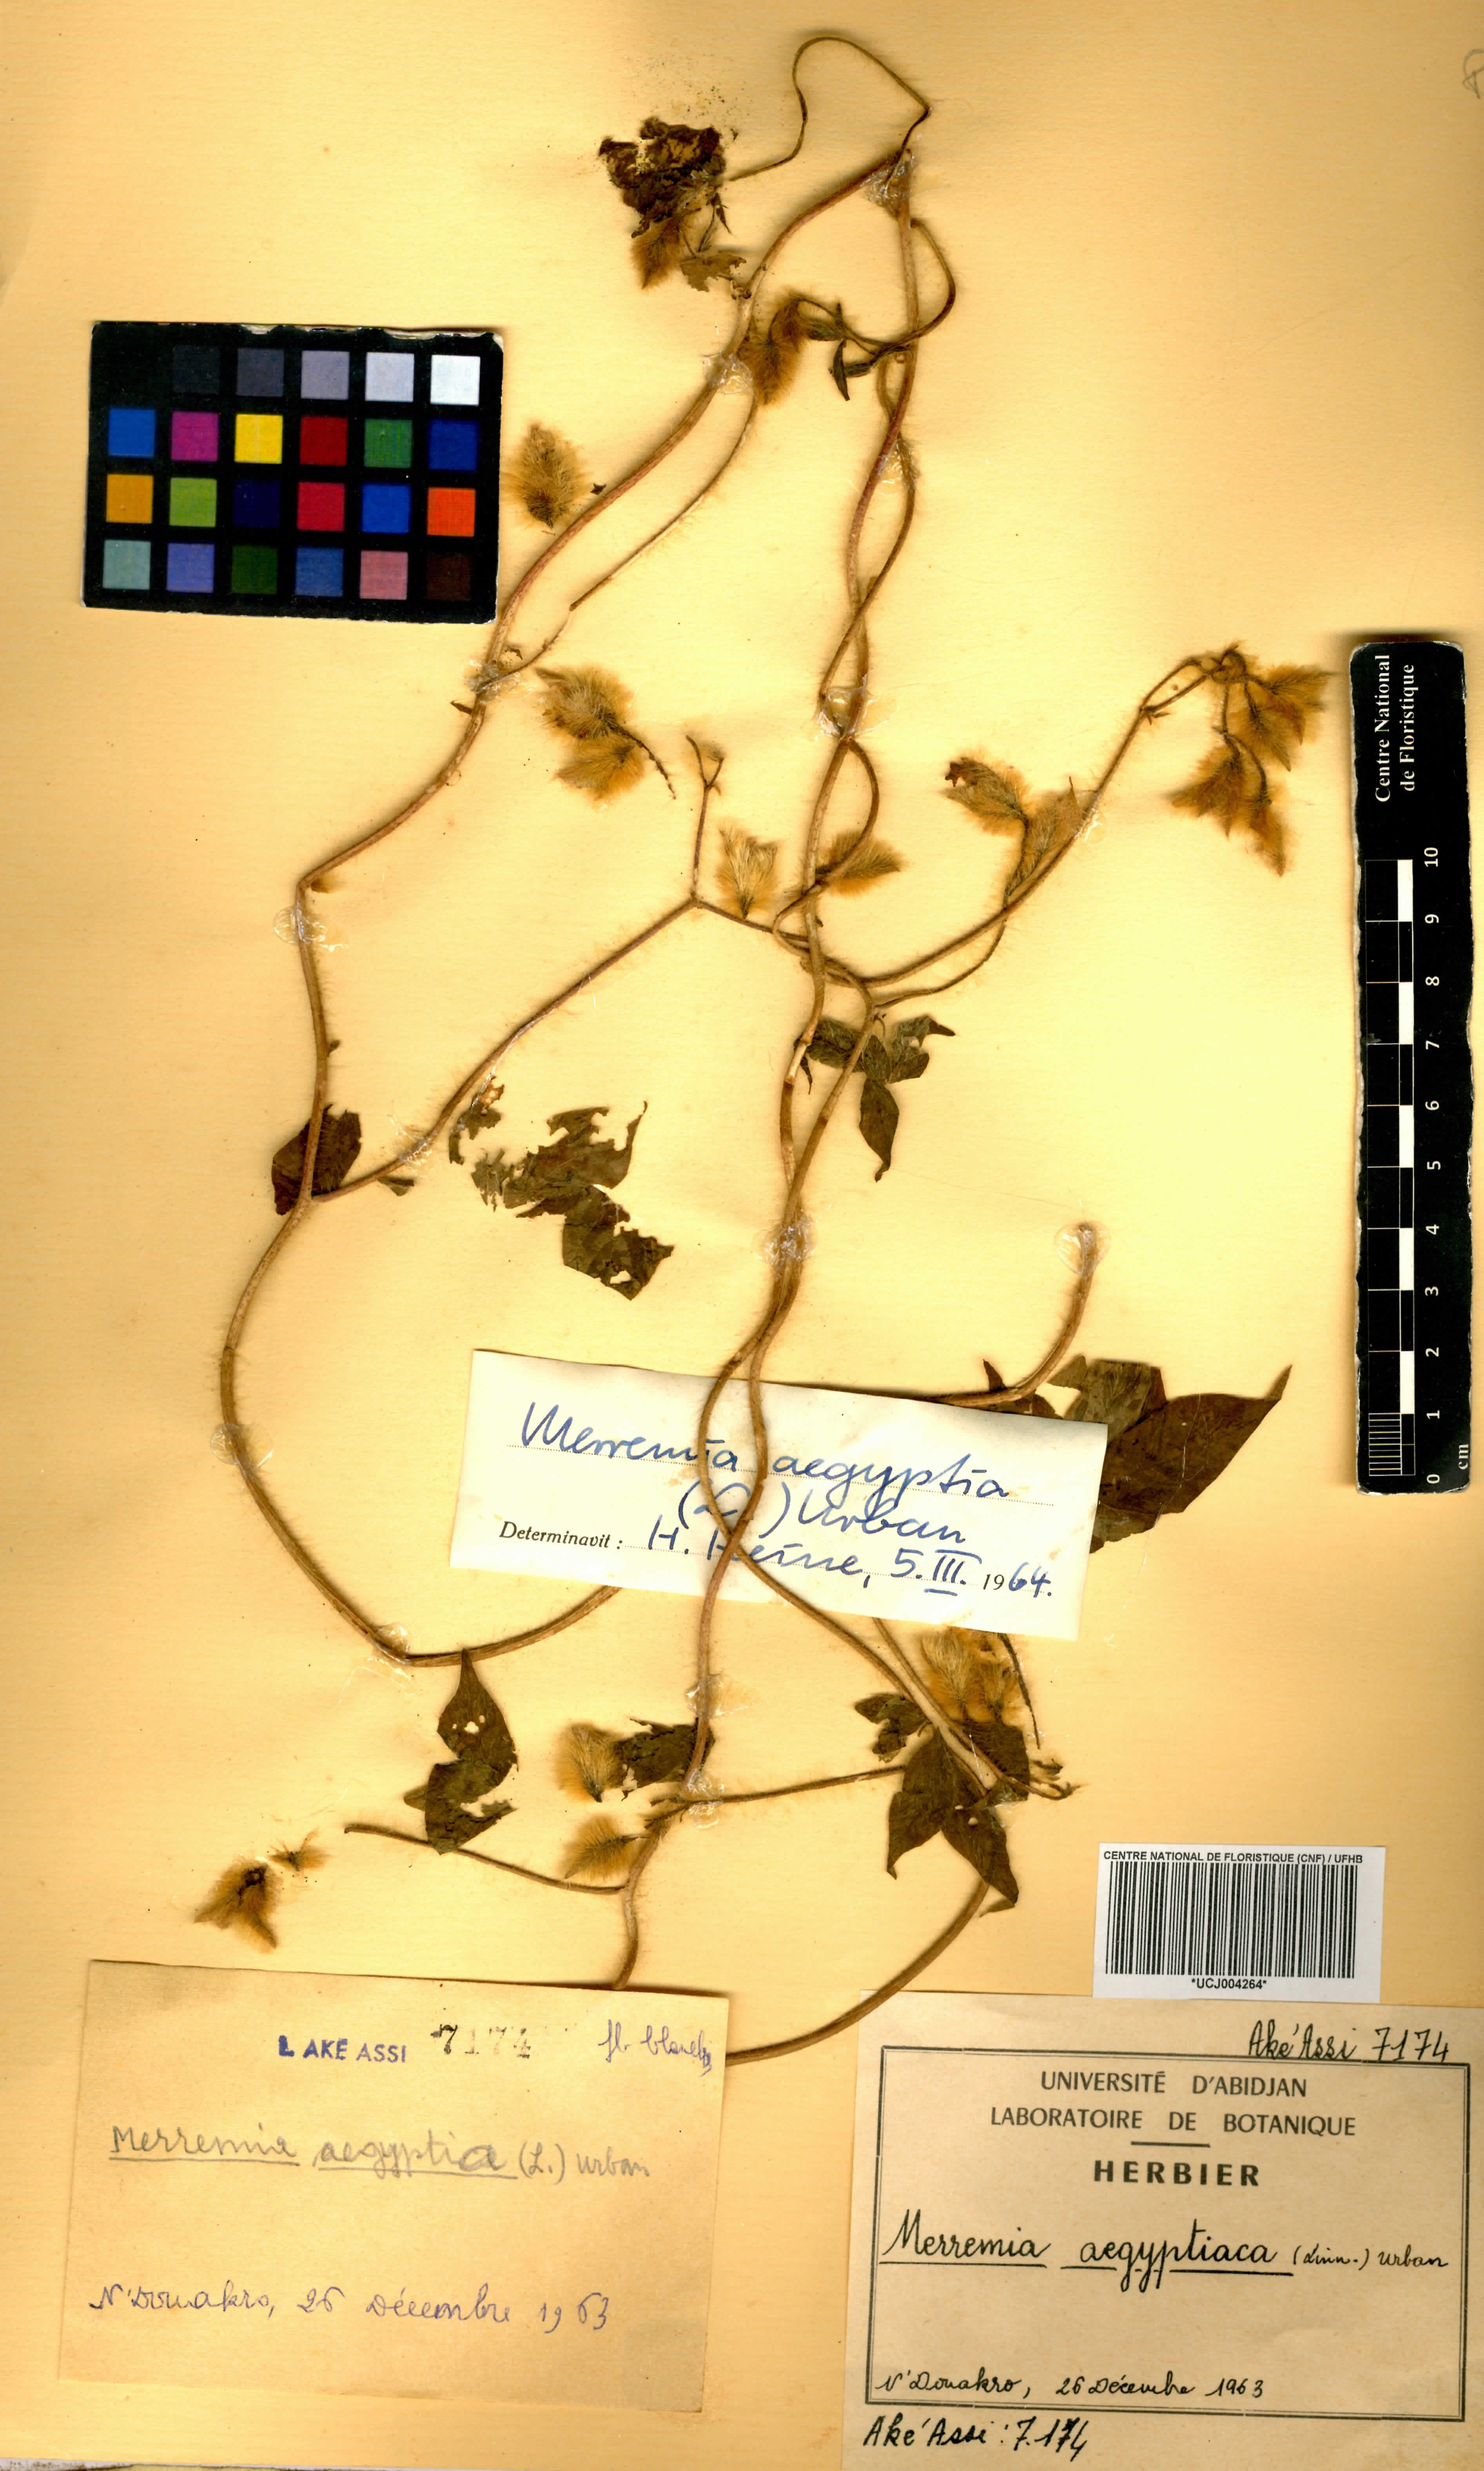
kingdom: Plantae
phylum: Tracheophyta
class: Magnoliopsida
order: Solanales
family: Convolvulaceae
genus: Distimake
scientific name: Distimake aegyptius
